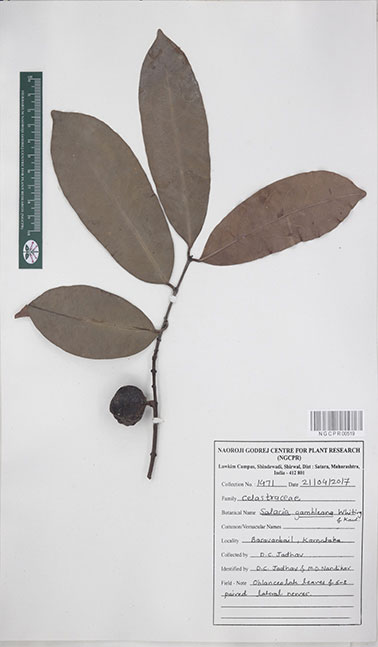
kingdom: Plantae
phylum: Tracheophyta
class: Magnoliopsida
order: Celastrales
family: Celastraceae
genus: Salacia
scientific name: Salacia gambleana
